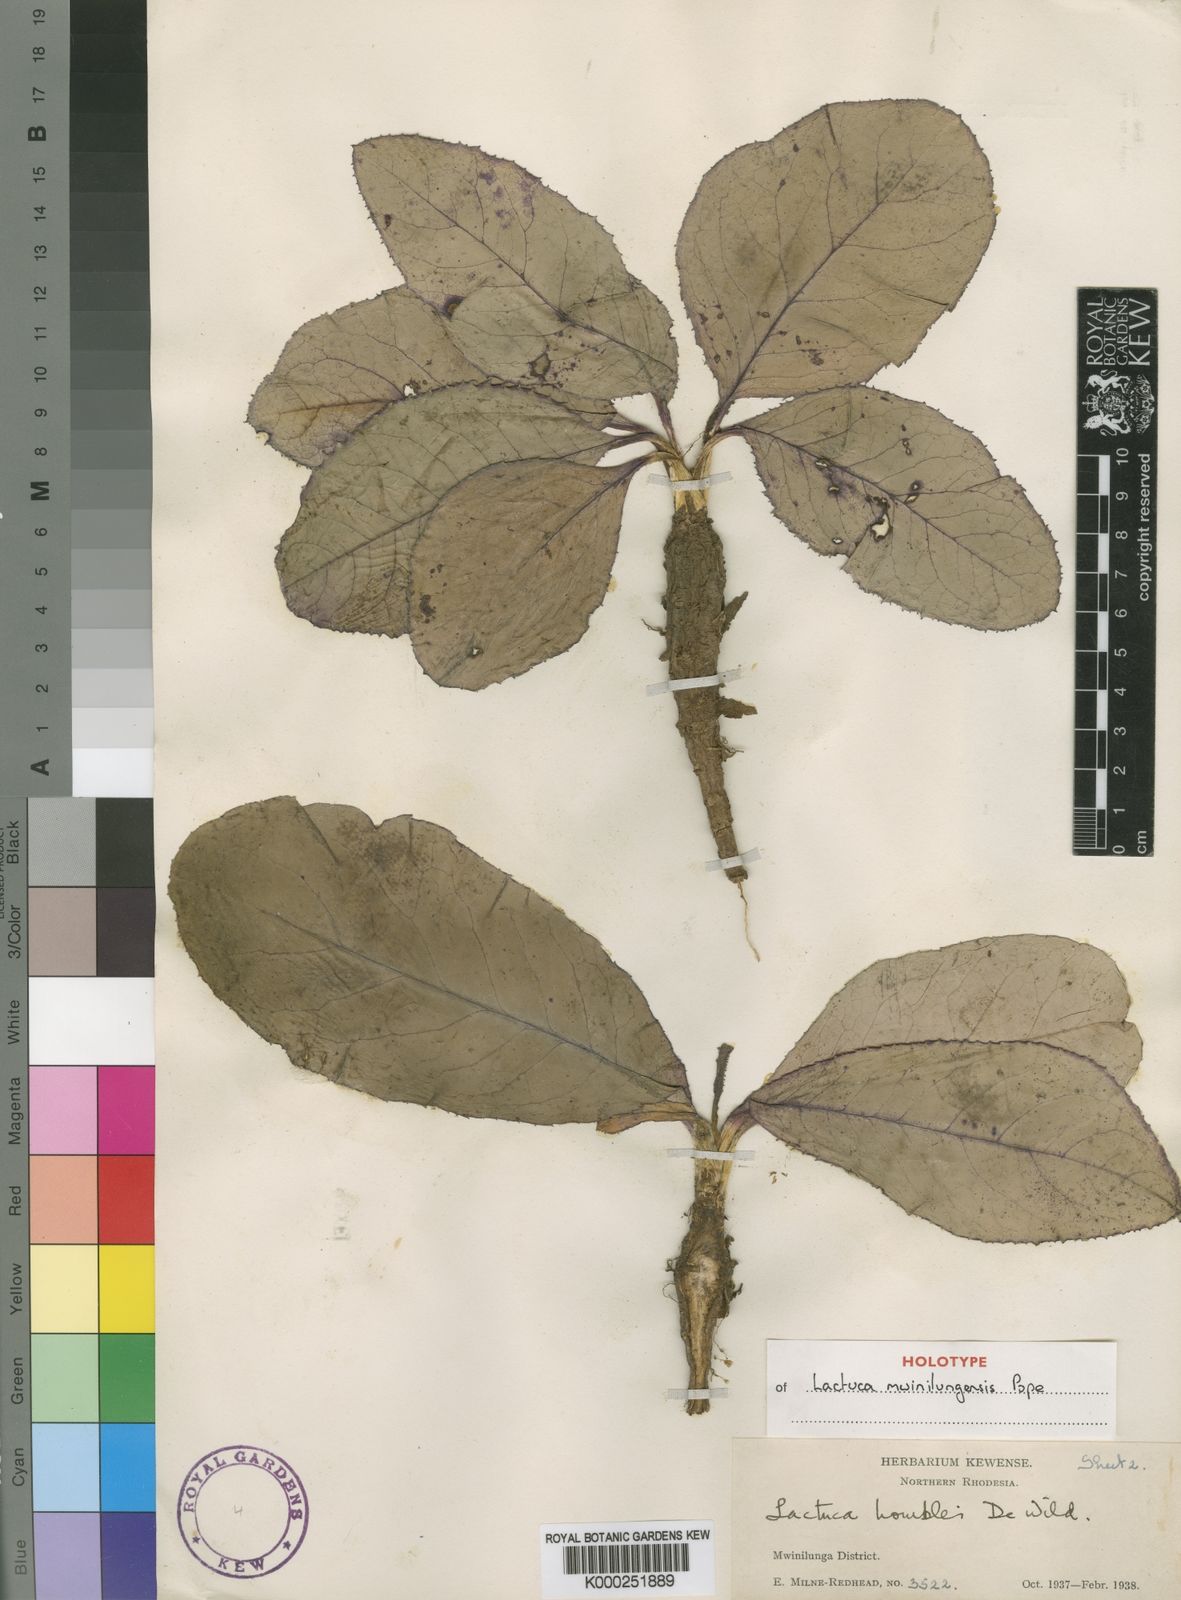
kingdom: Plantae
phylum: Tracheophyta
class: Magnoliopsida
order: Asterales
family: Asteraceae
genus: Lactuca
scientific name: Lactuca mwinilungensis
